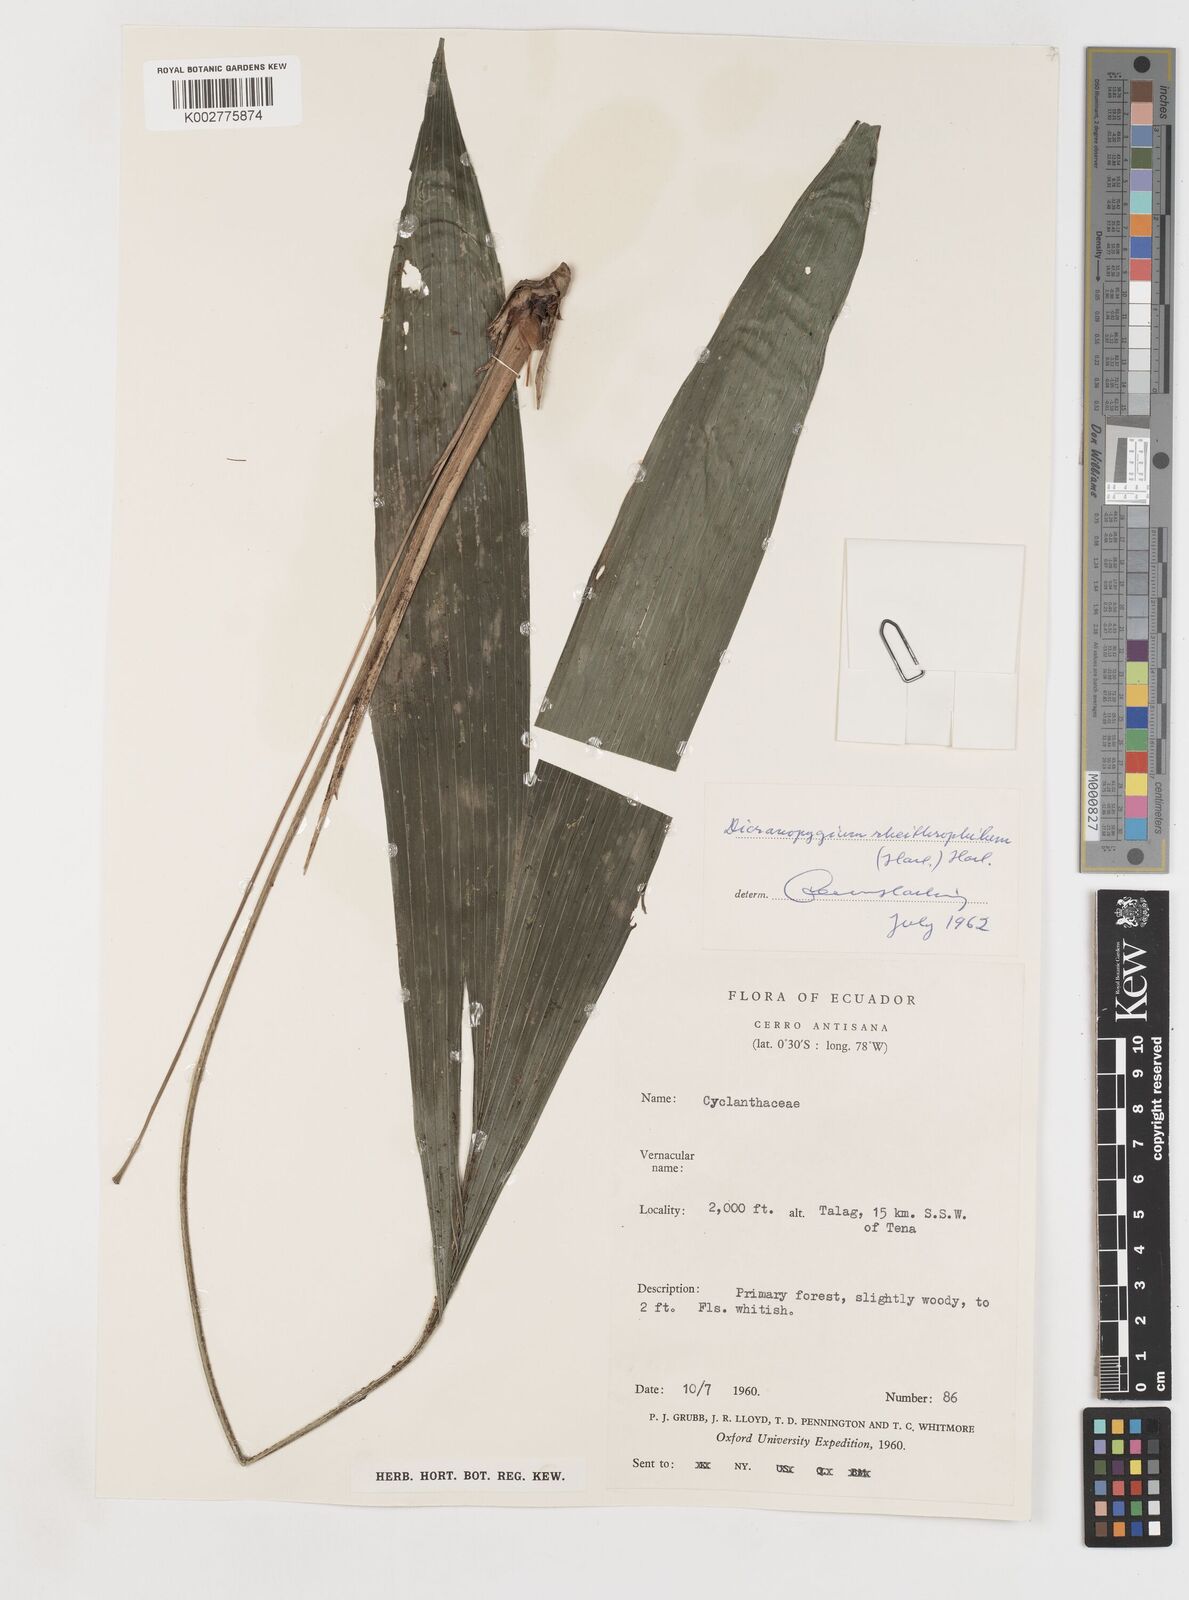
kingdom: Plantae
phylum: Tracheophyta
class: Liliopsida
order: Pandanales
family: Cyclanthaceae
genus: Dicranopygium
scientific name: Dicranopygium rheithrophilum
